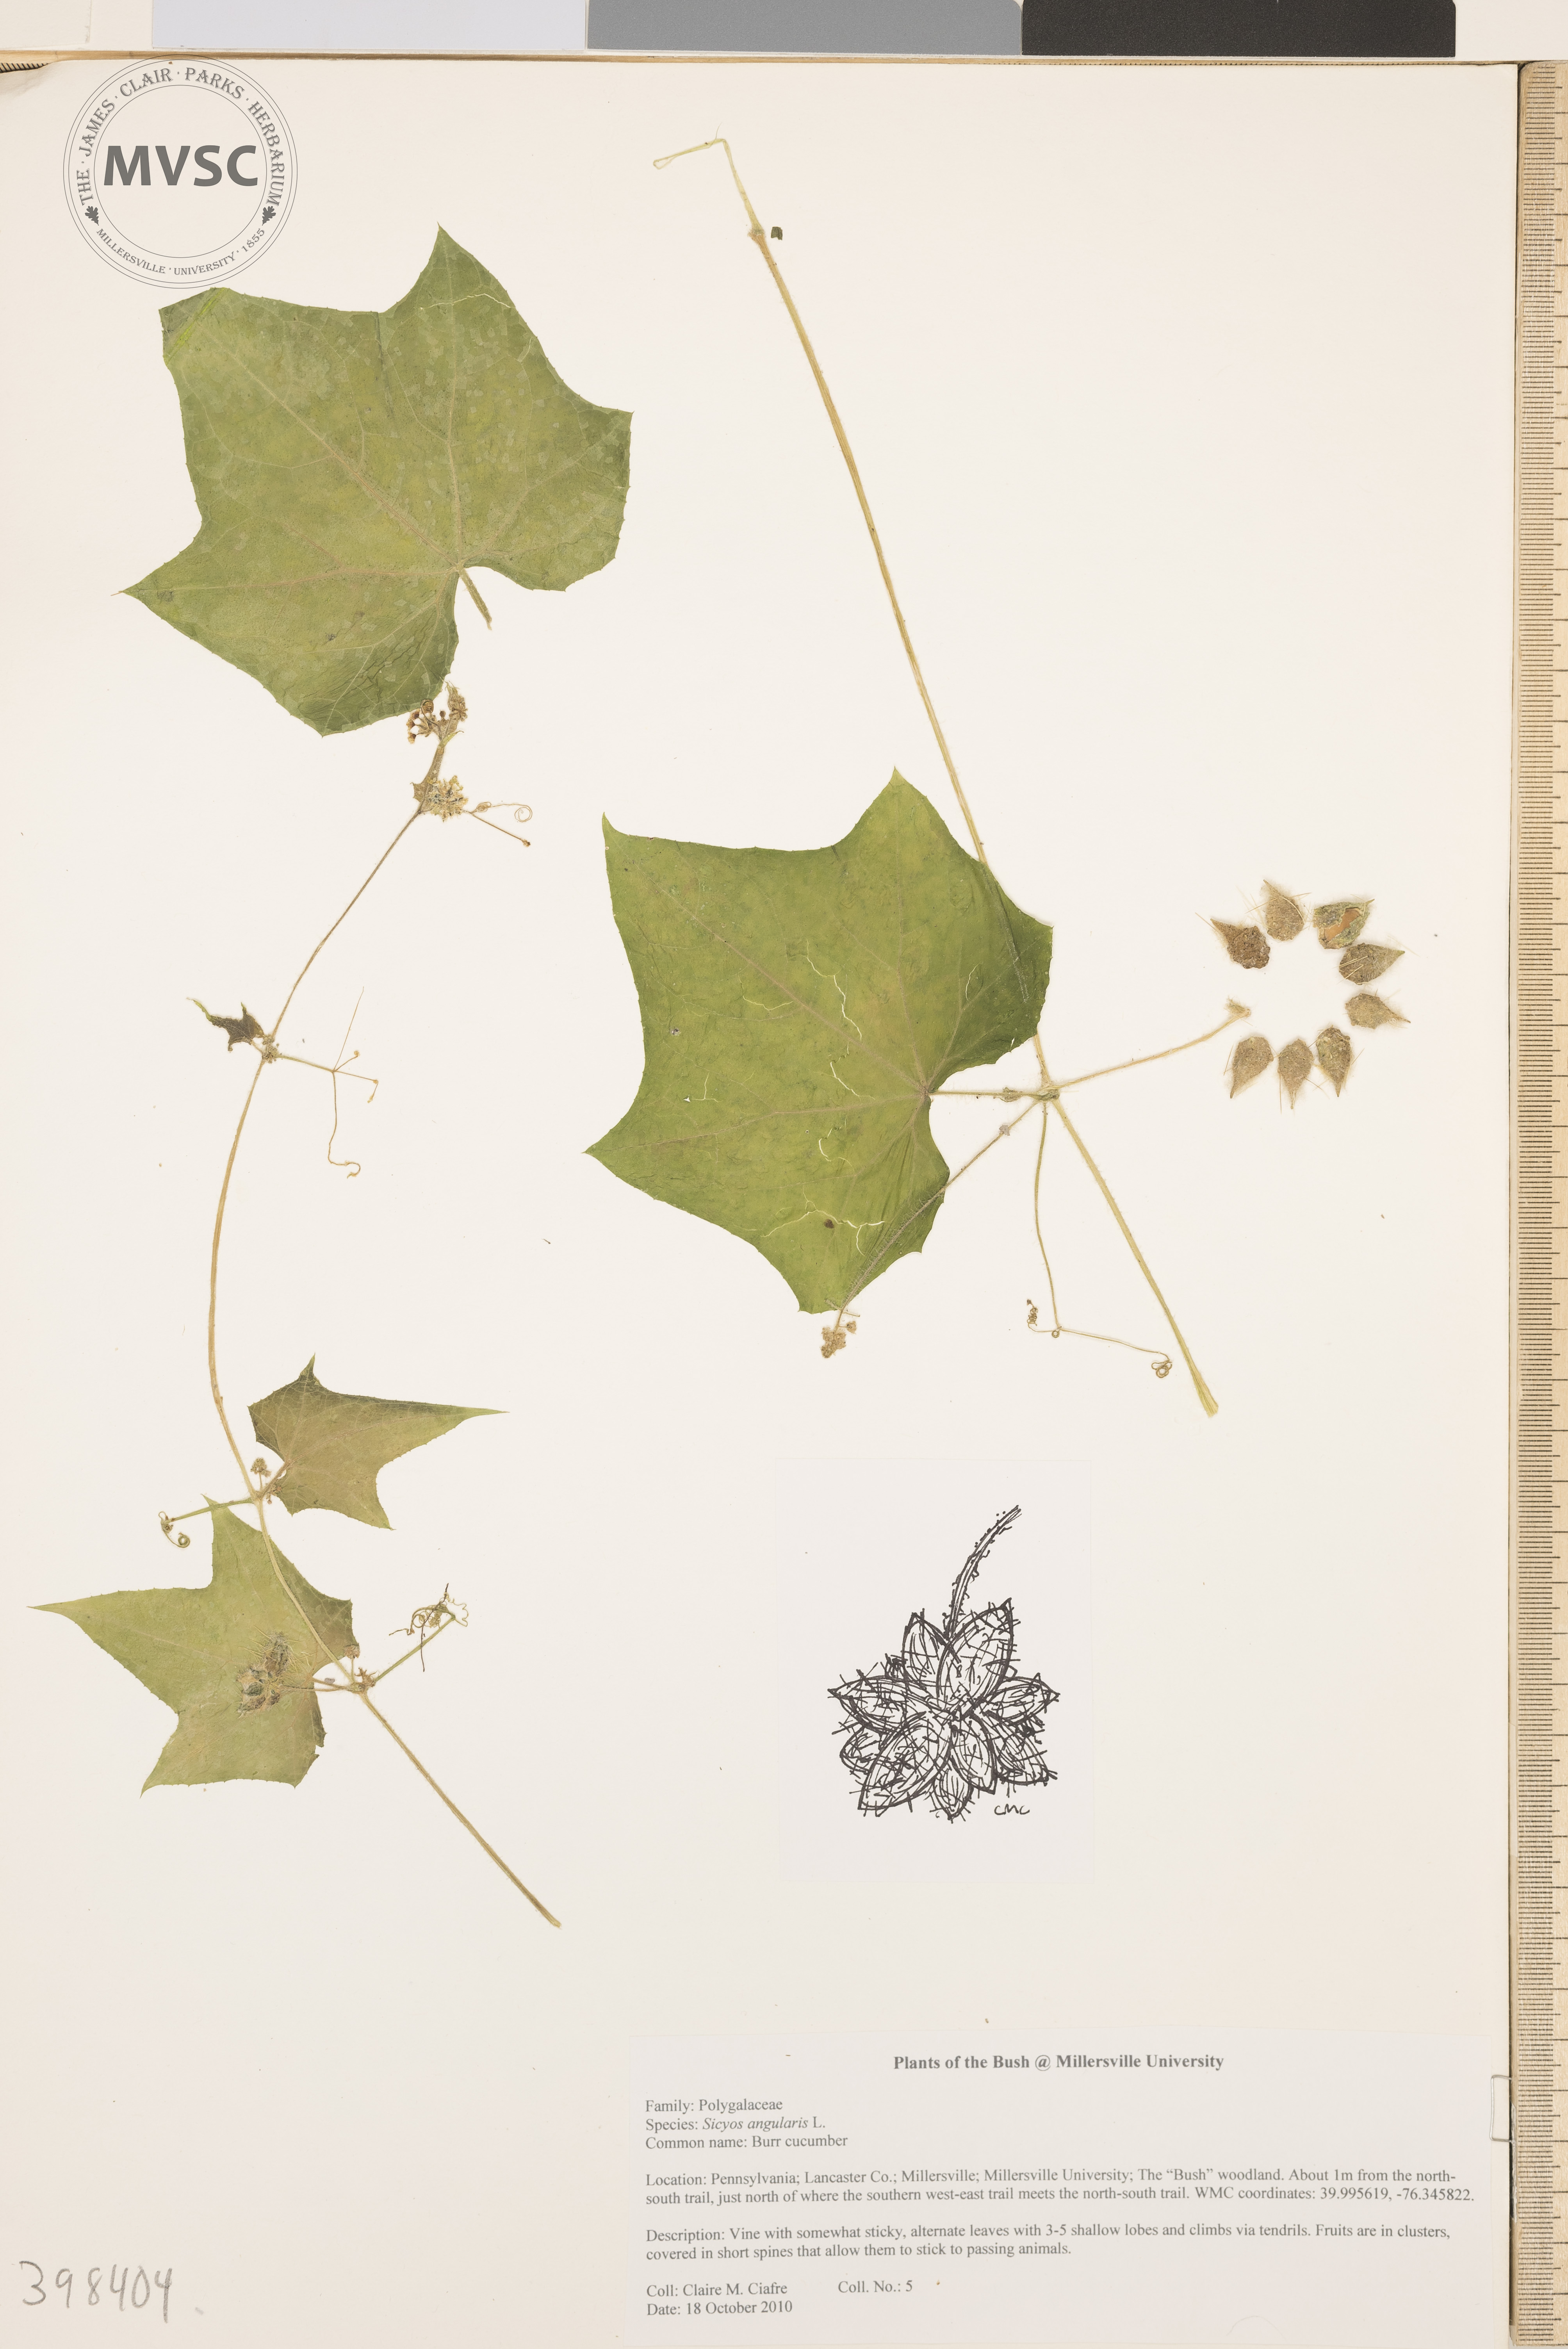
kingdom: Plantae
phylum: Tracheophyta
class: Magnoliopsida
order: Cucurbitales
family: Cucurbitaceae
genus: Sicyos
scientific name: Sicyos angulatus
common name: Bur cucumber
